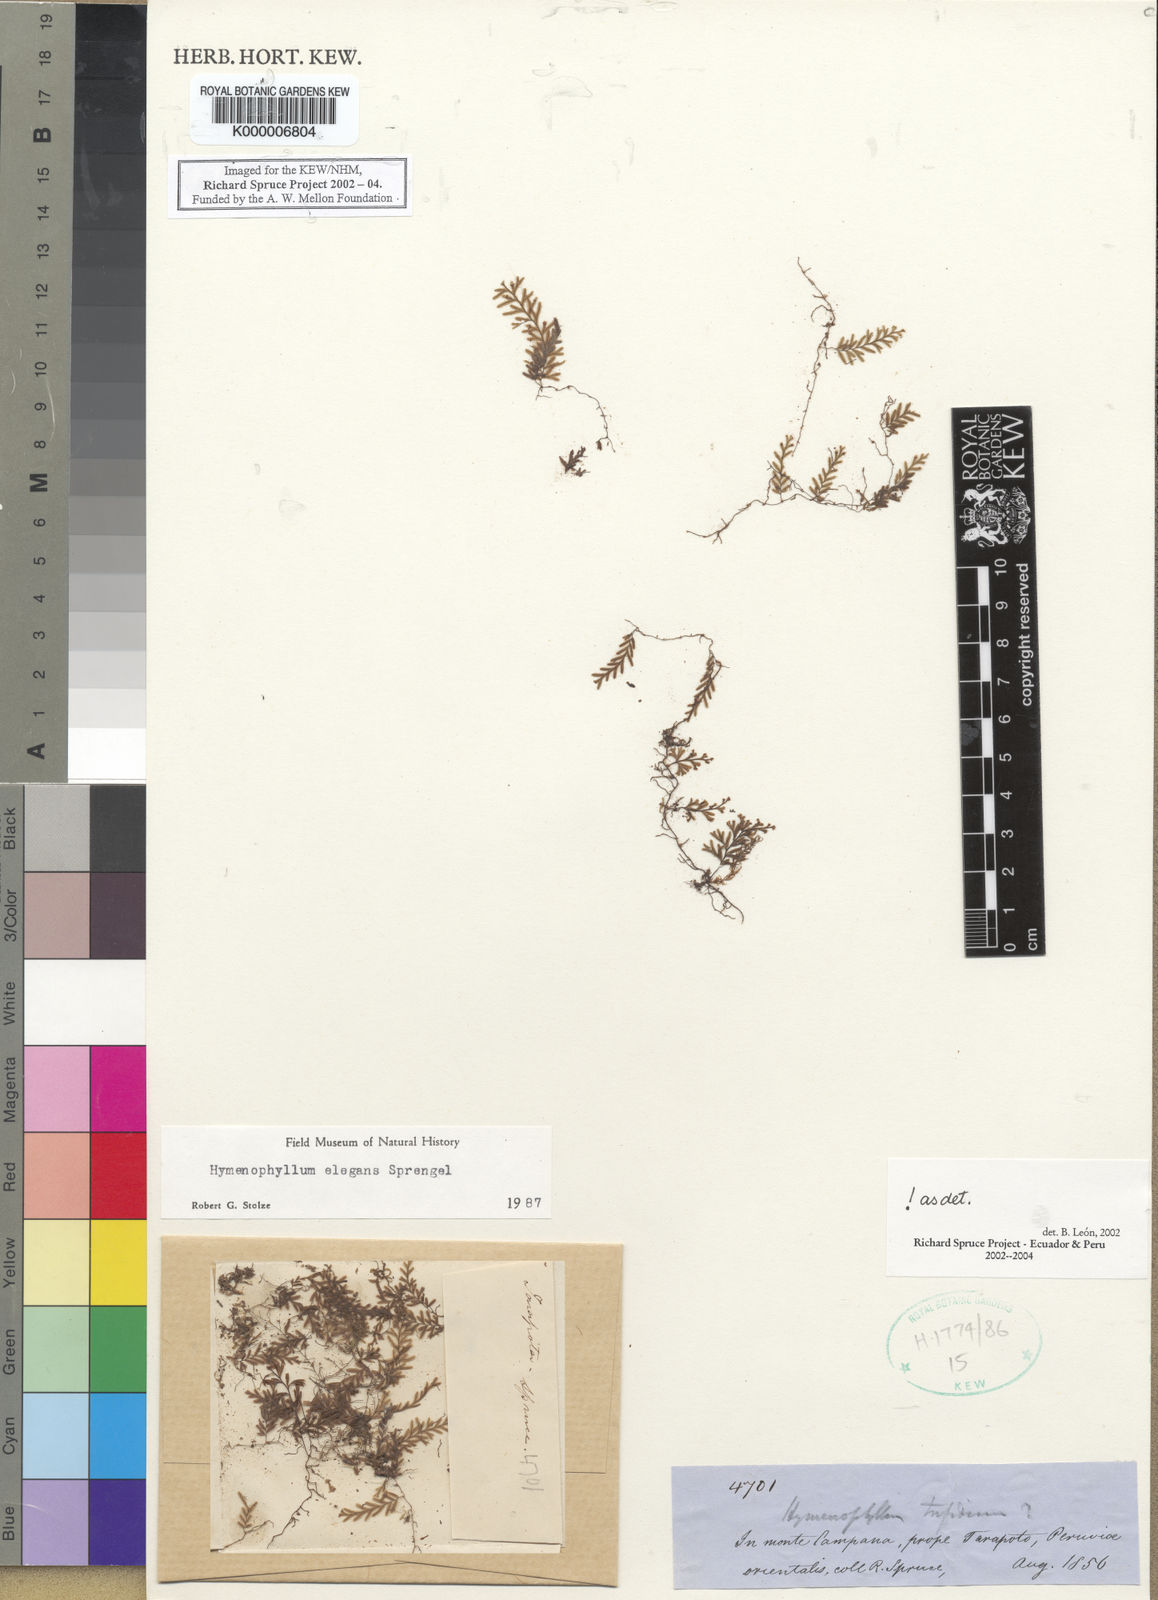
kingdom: Plantae
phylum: Tracheophyta
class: Polypodiopsida
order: Hymenophyllales
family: Hymenophyllaceae
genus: Hymenophyllum
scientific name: Hymenophyllum elegans
